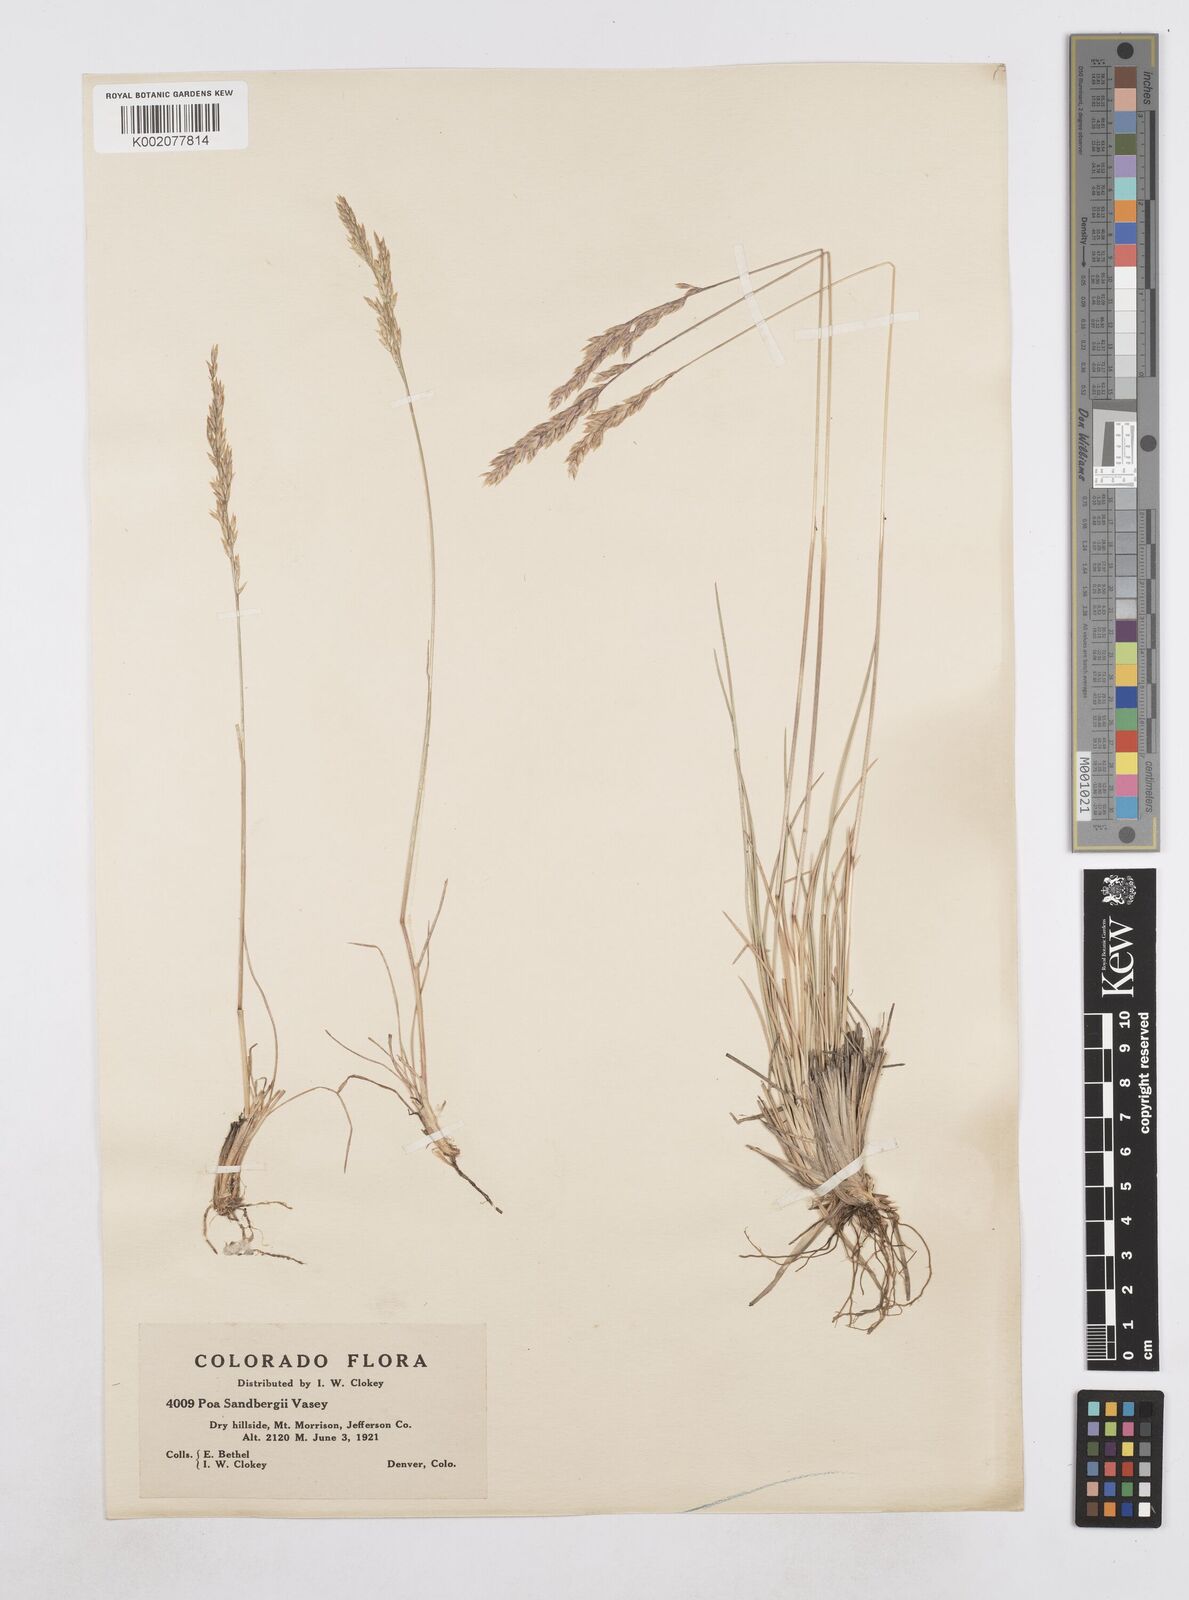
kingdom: Plantae
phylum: Tracheophyta
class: Liliopsida
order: Poales
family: Poaceae
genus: Poa
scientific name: Poa secunda
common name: Sandberg bluegrass
